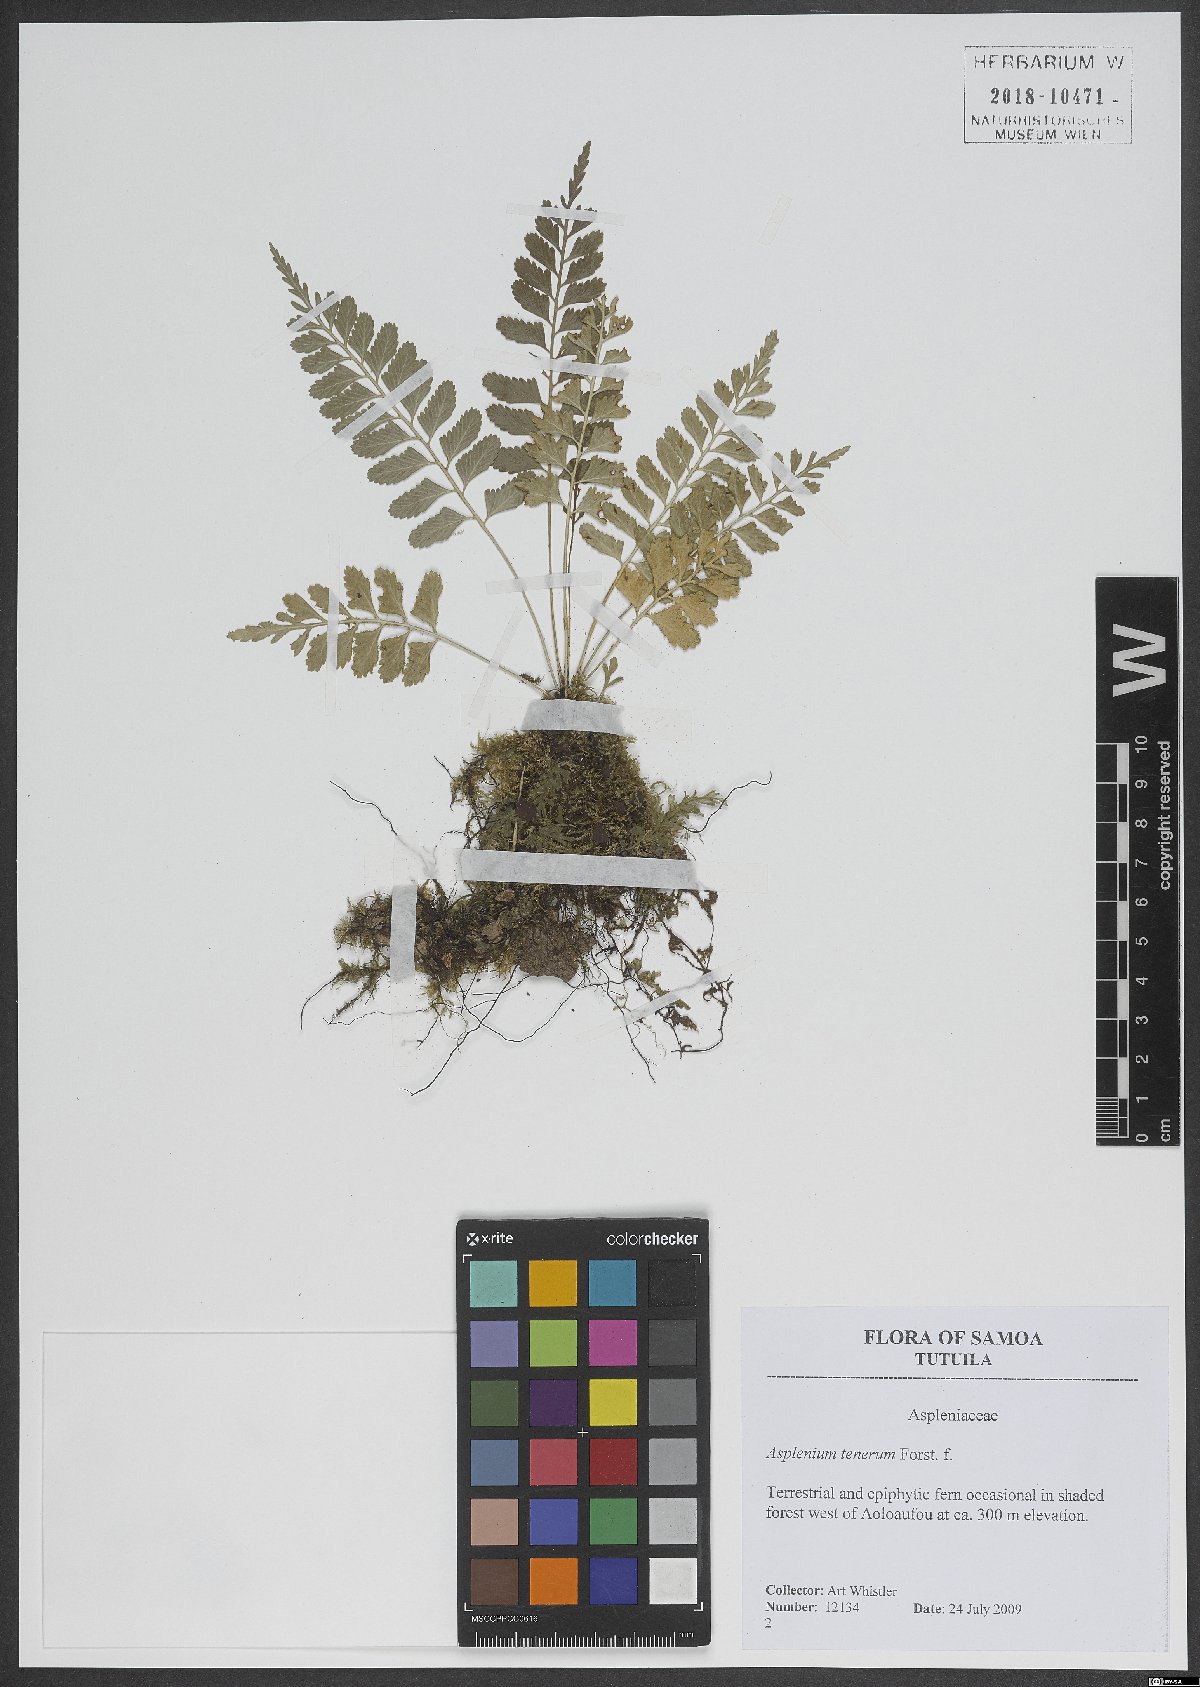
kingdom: Plantae
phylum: Tracheophyta
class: Polypodiopsida
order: Polypodiales
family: Aspleniaceae
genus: Asplenium
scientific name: Asplenium tenerum
